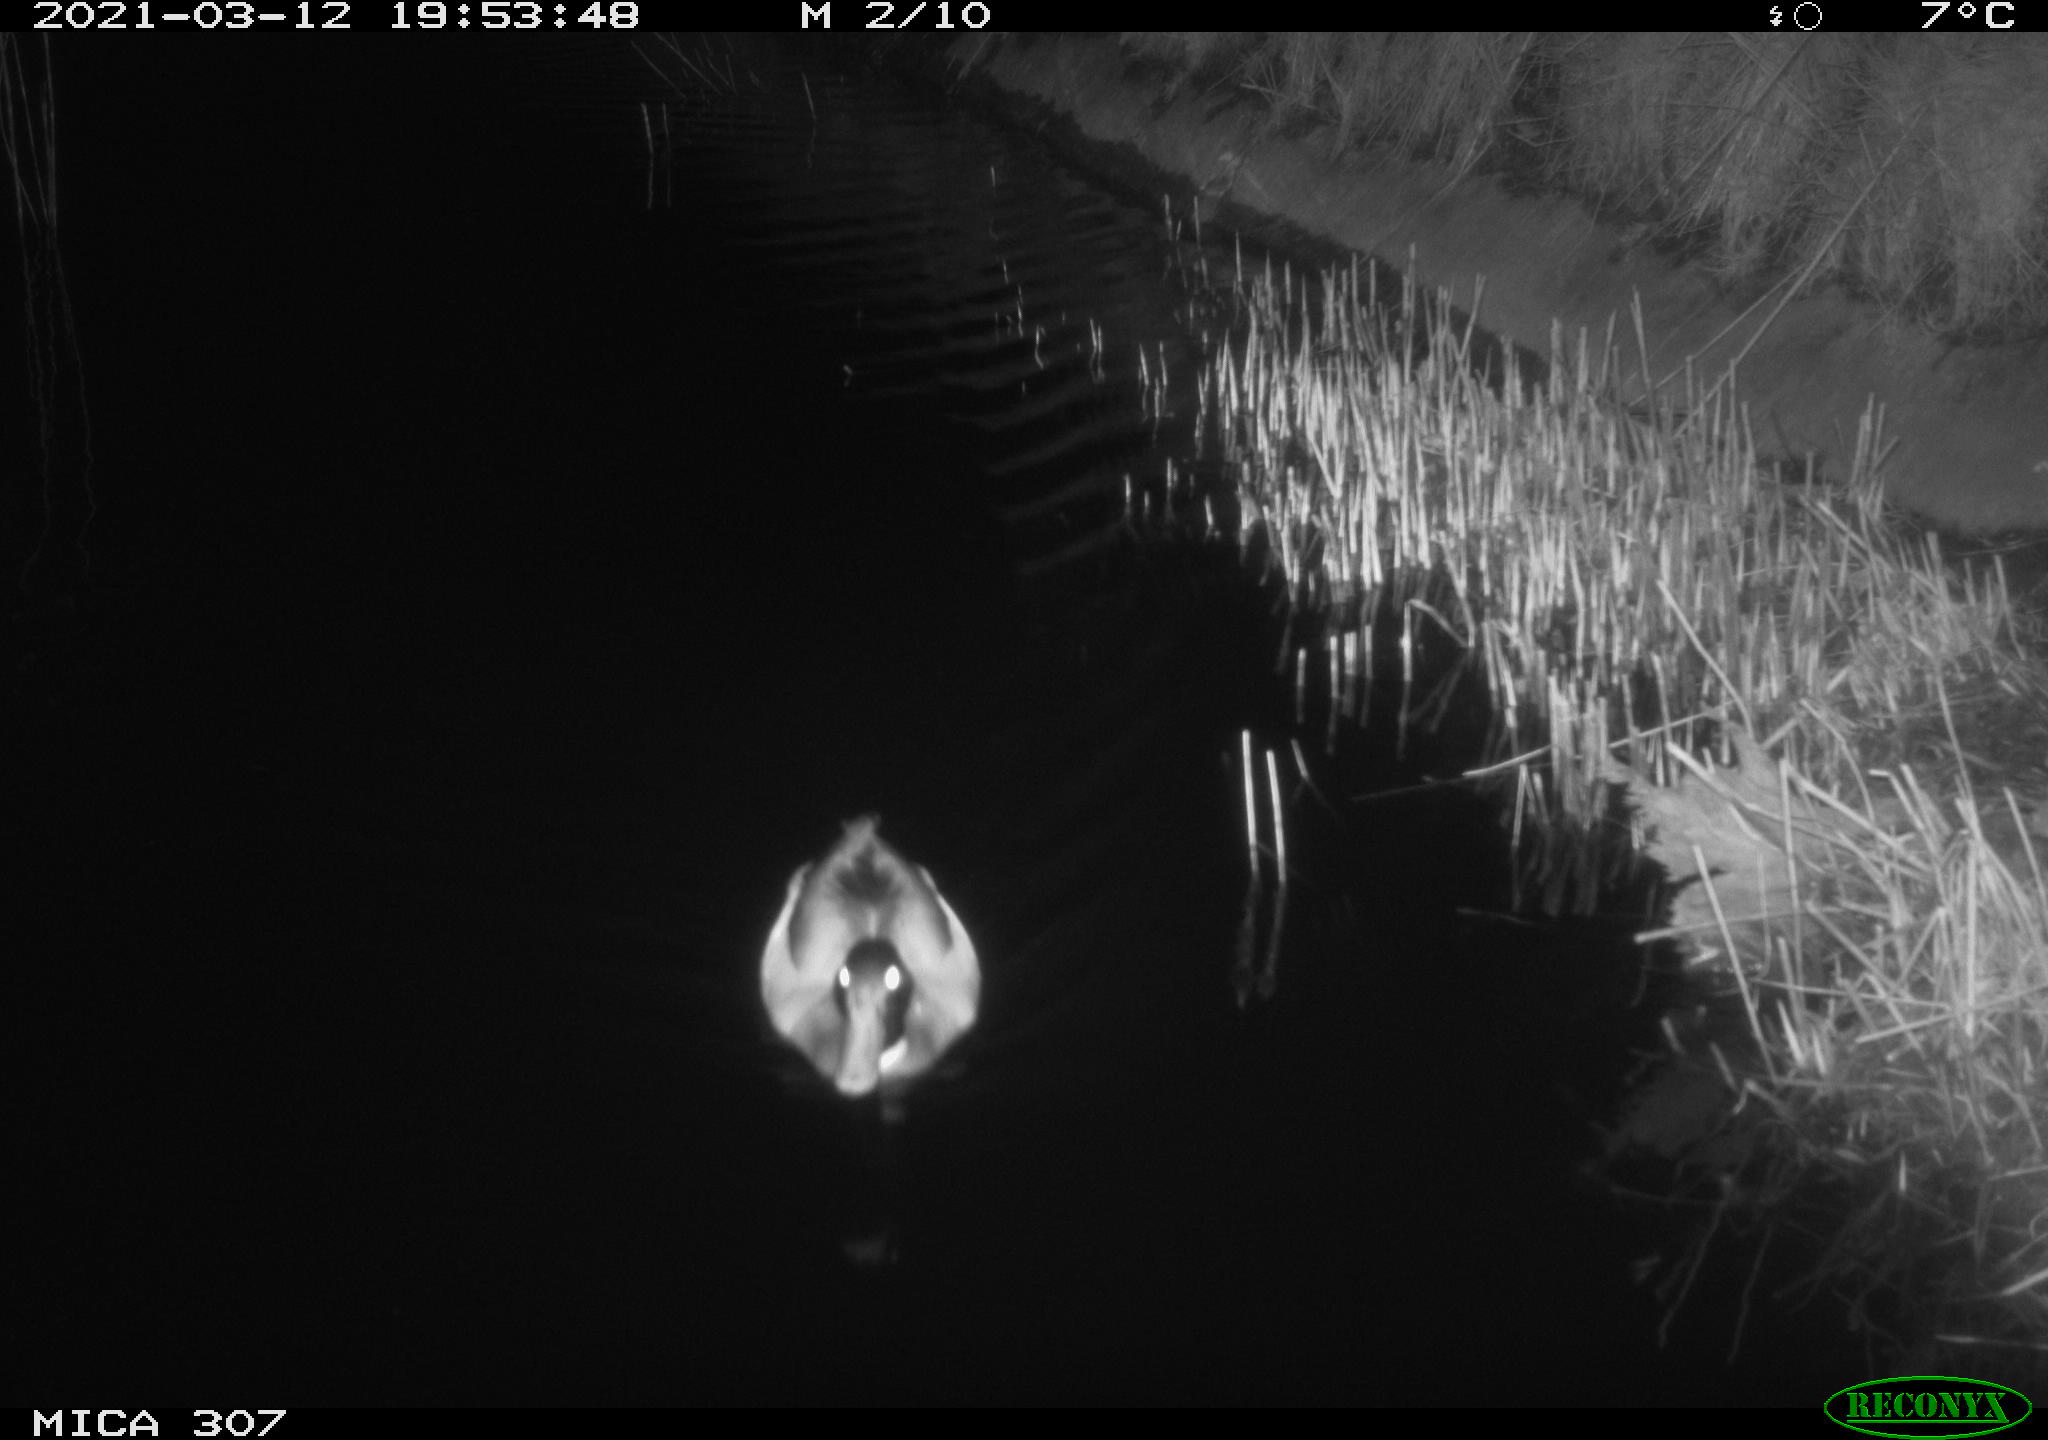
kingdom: Animalia
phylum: Chordata
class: Aves
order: Anseriformes
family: Anatidae
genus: Anas
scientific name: Anas platyrhynchos
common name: Mallard
